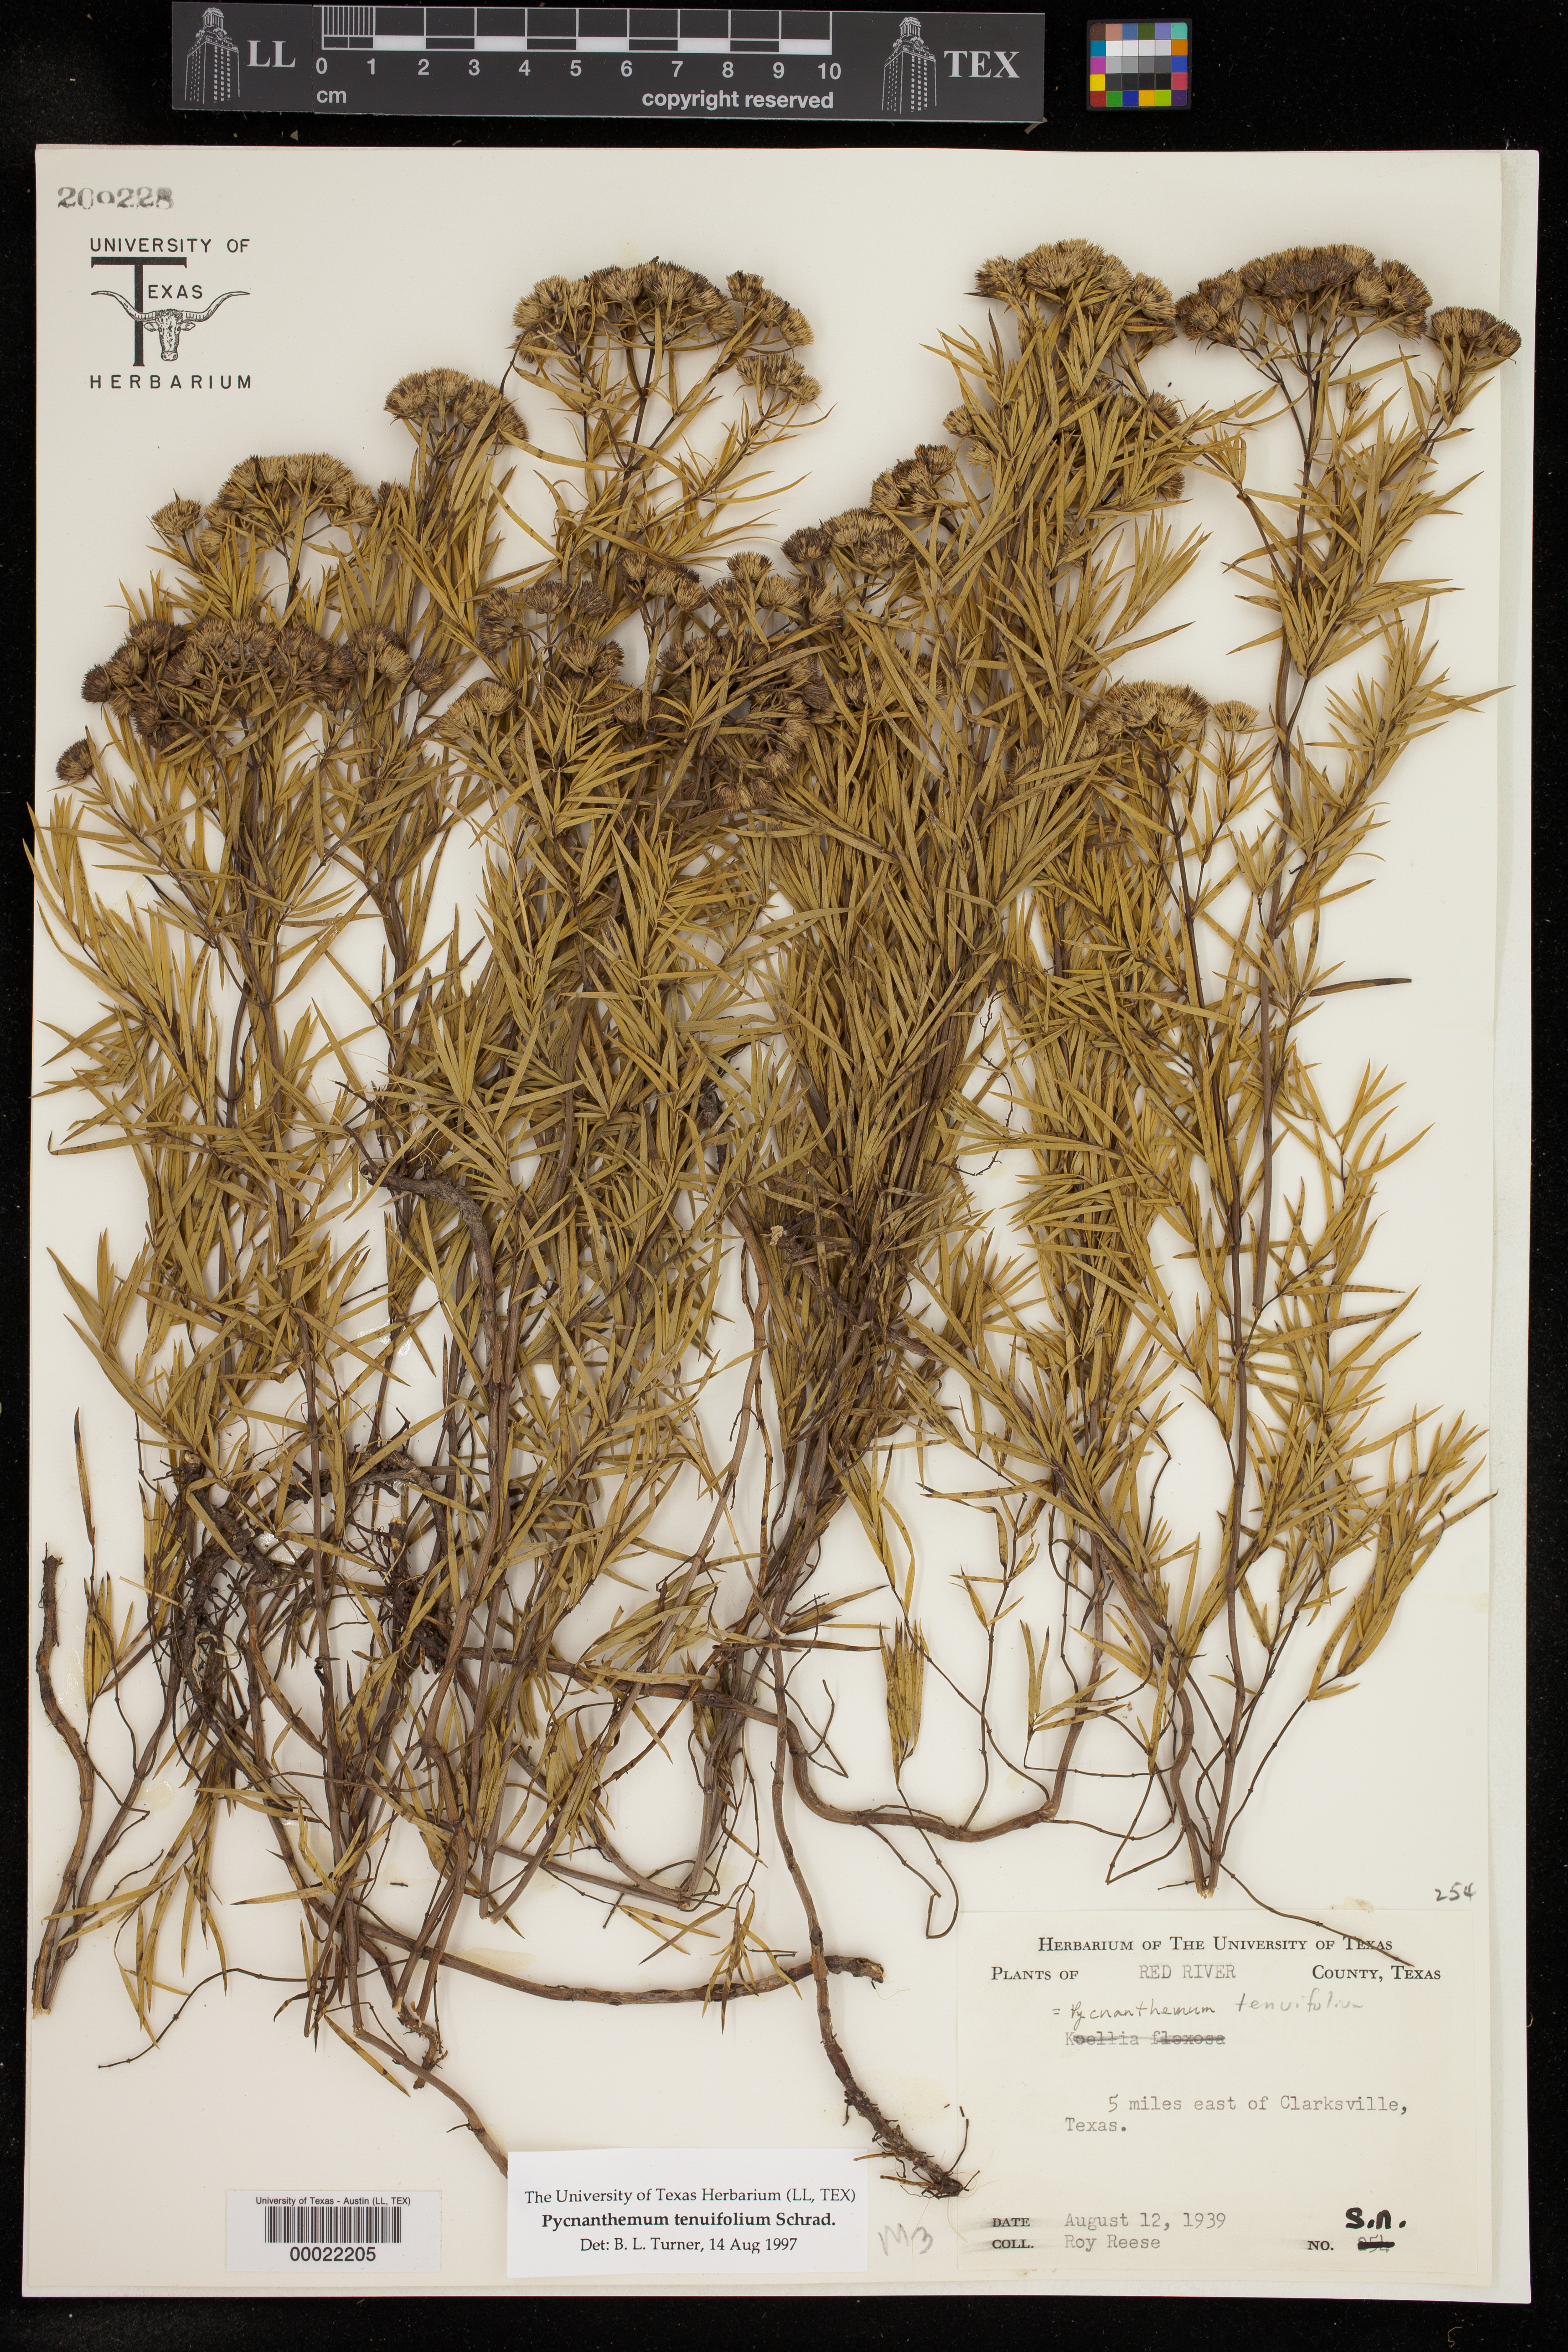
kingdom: Plantae
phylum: Tracheophyta
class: Magnoliopsida
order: Lamiales
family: Lamiaceae
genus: Pycnanthemum
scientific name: Pycnanthemum tenuifolium
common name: Narrow-leaf mountain-mint
